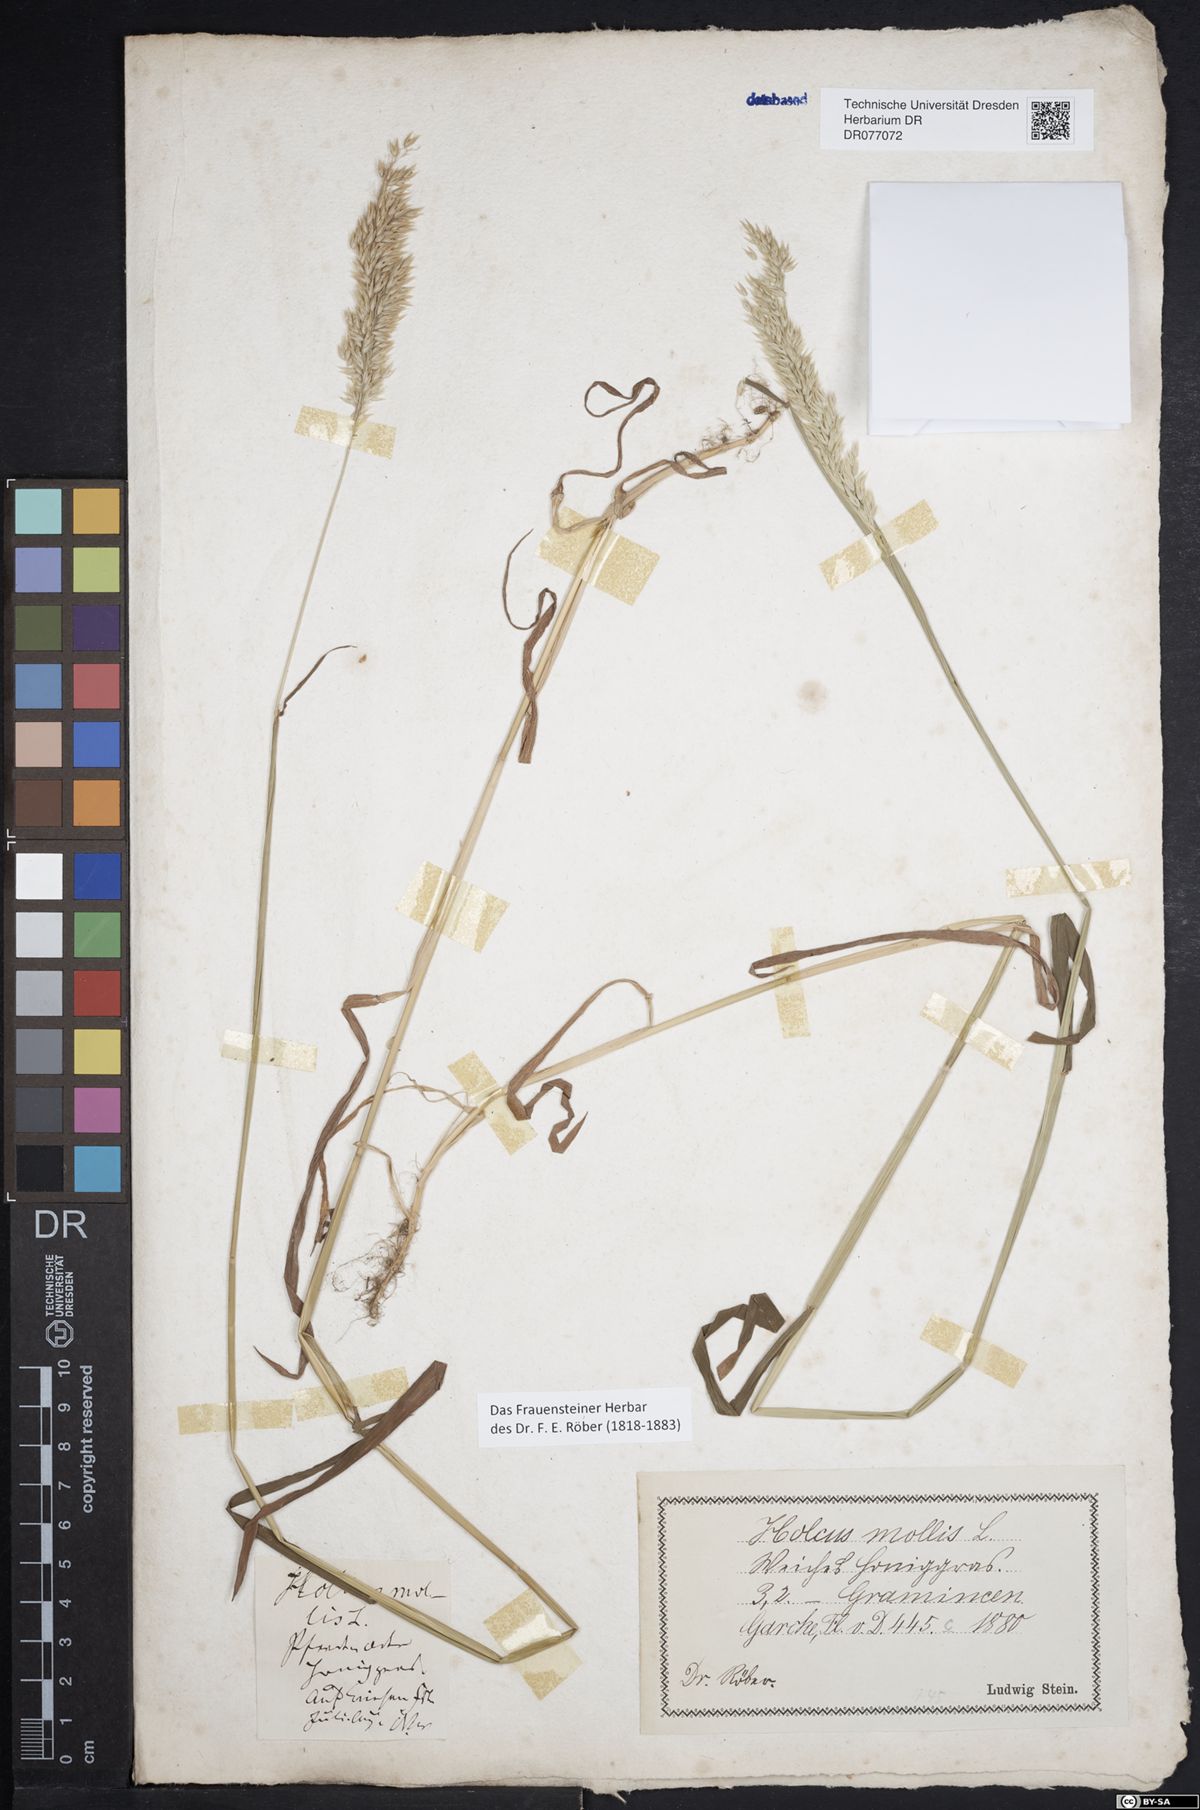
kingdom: Plantae
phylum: Tracheophyta
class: Liliopsida
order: Poales
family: Poaceae
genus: Holcus
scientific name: Holcus mollis
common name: Creeping velvetgrass
